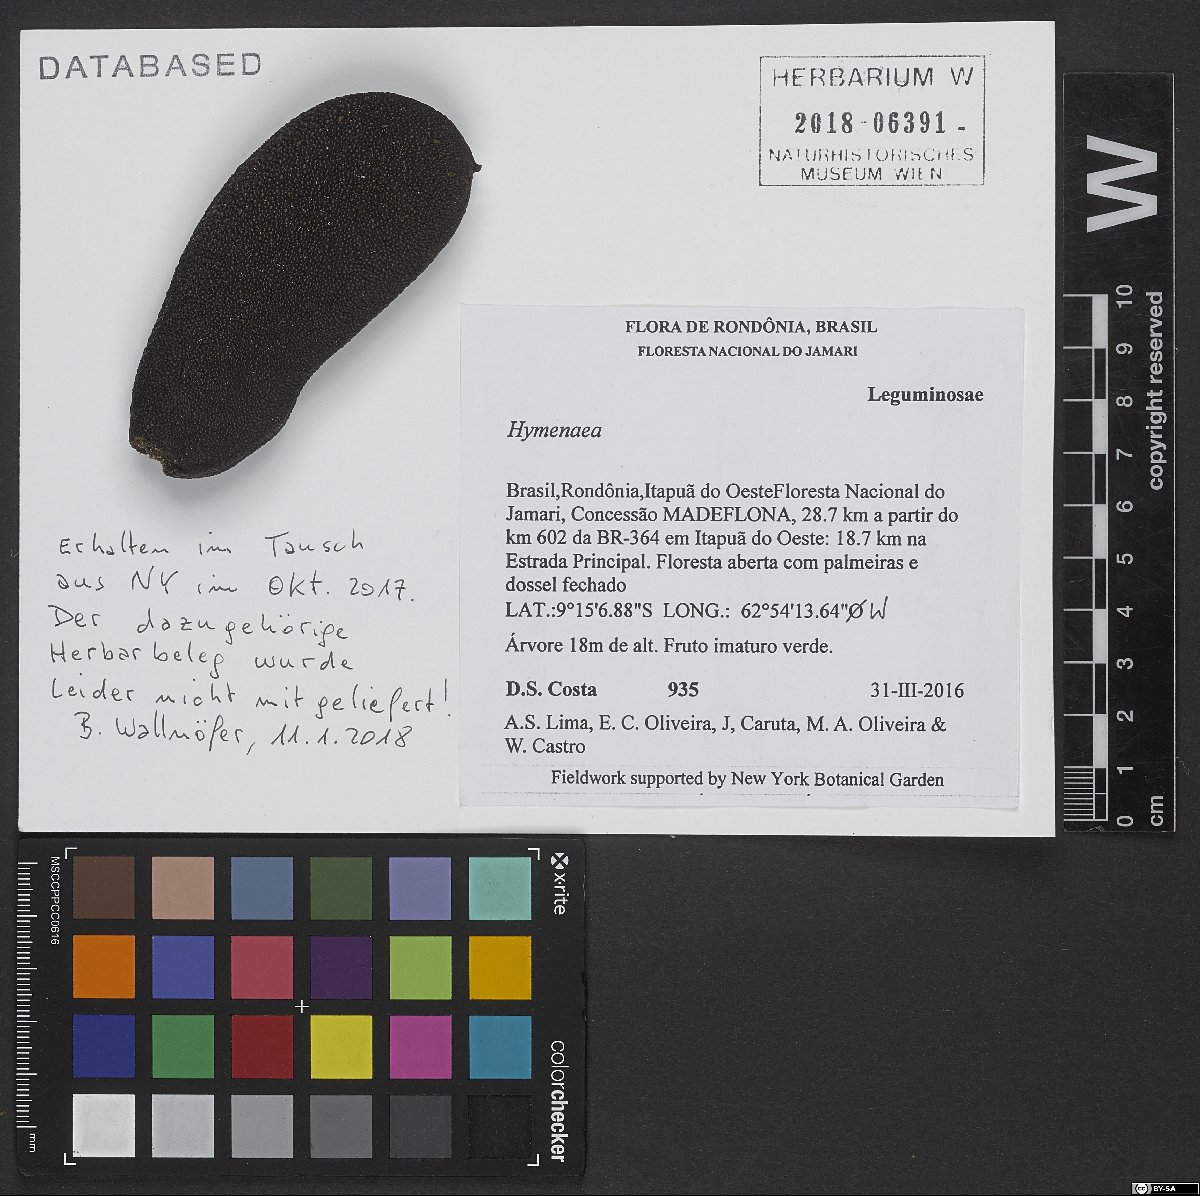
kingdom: Plantae
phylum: Tracheophyta
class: Magnoliopsida
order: Fabales
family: Fabaceae
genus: Hymenaea
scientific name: Hymenaea
